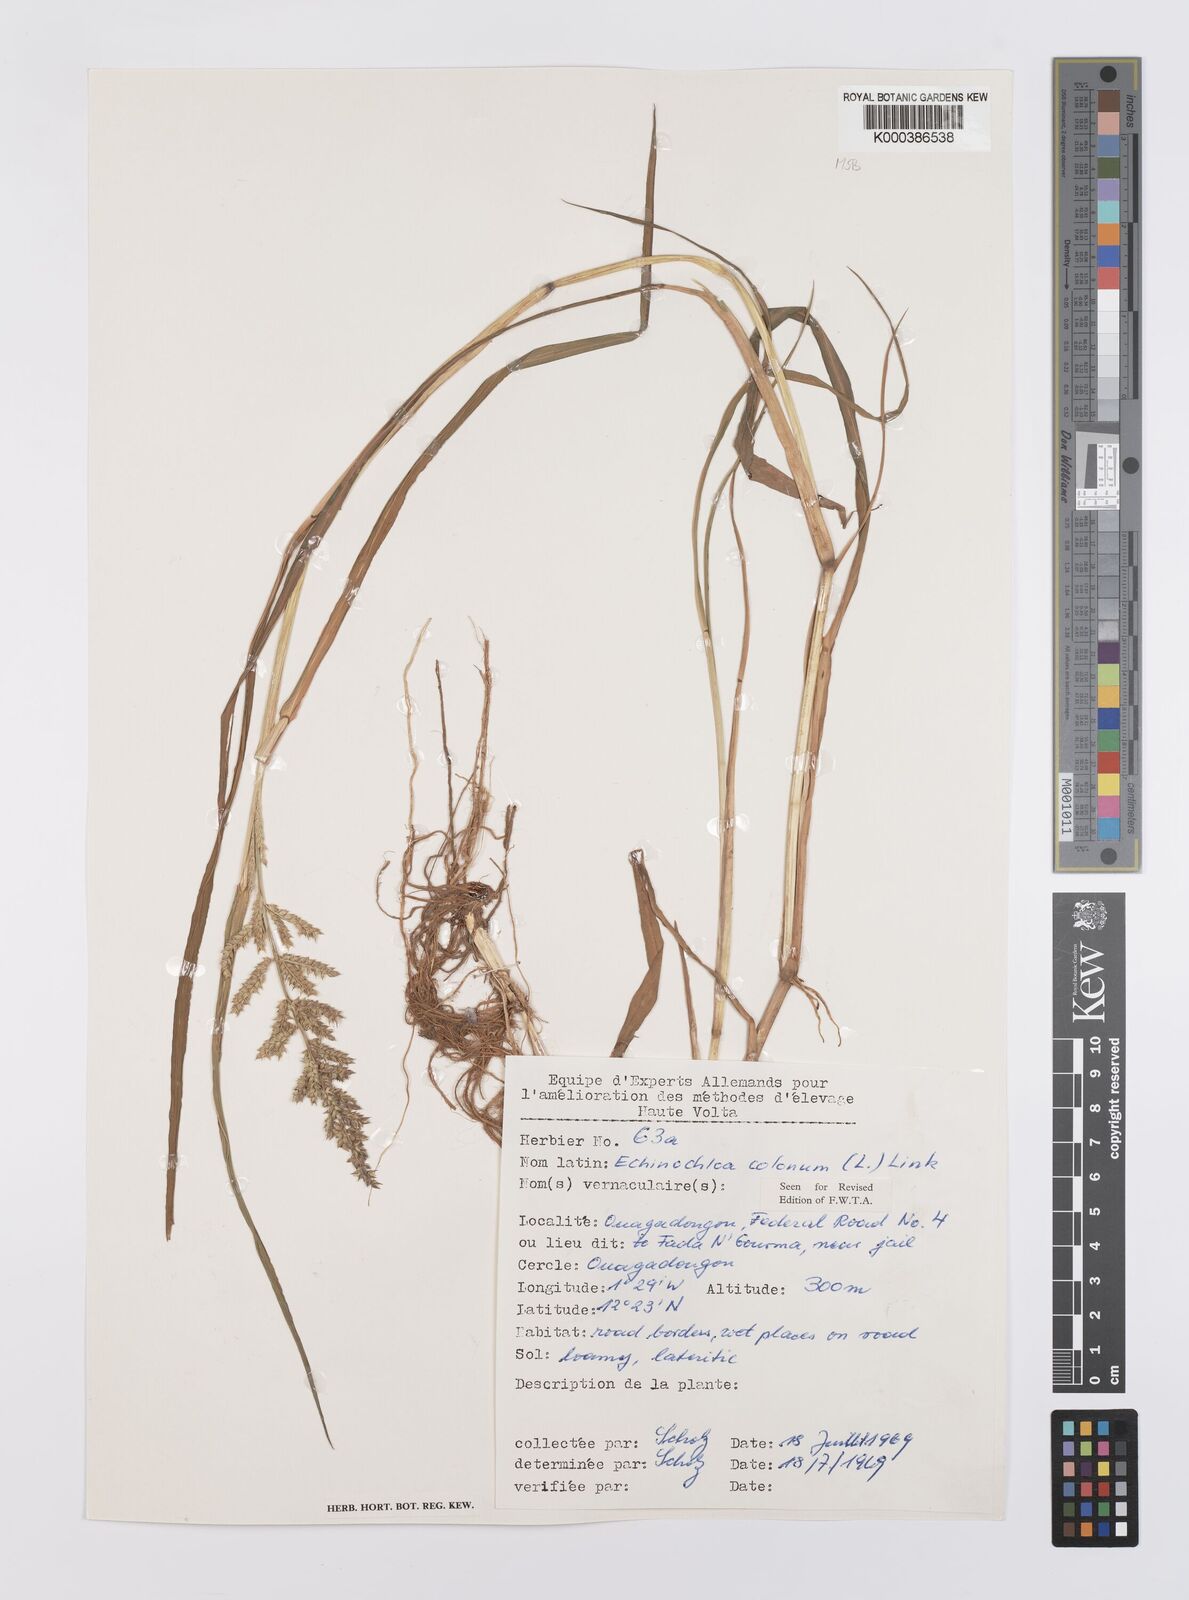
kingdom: Plantae
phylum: Tracheophyta
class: Liliopsida
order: Poales
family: Poaceae
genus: Echinochloa
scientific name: Echinochloa colonum
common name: Jungle rice
